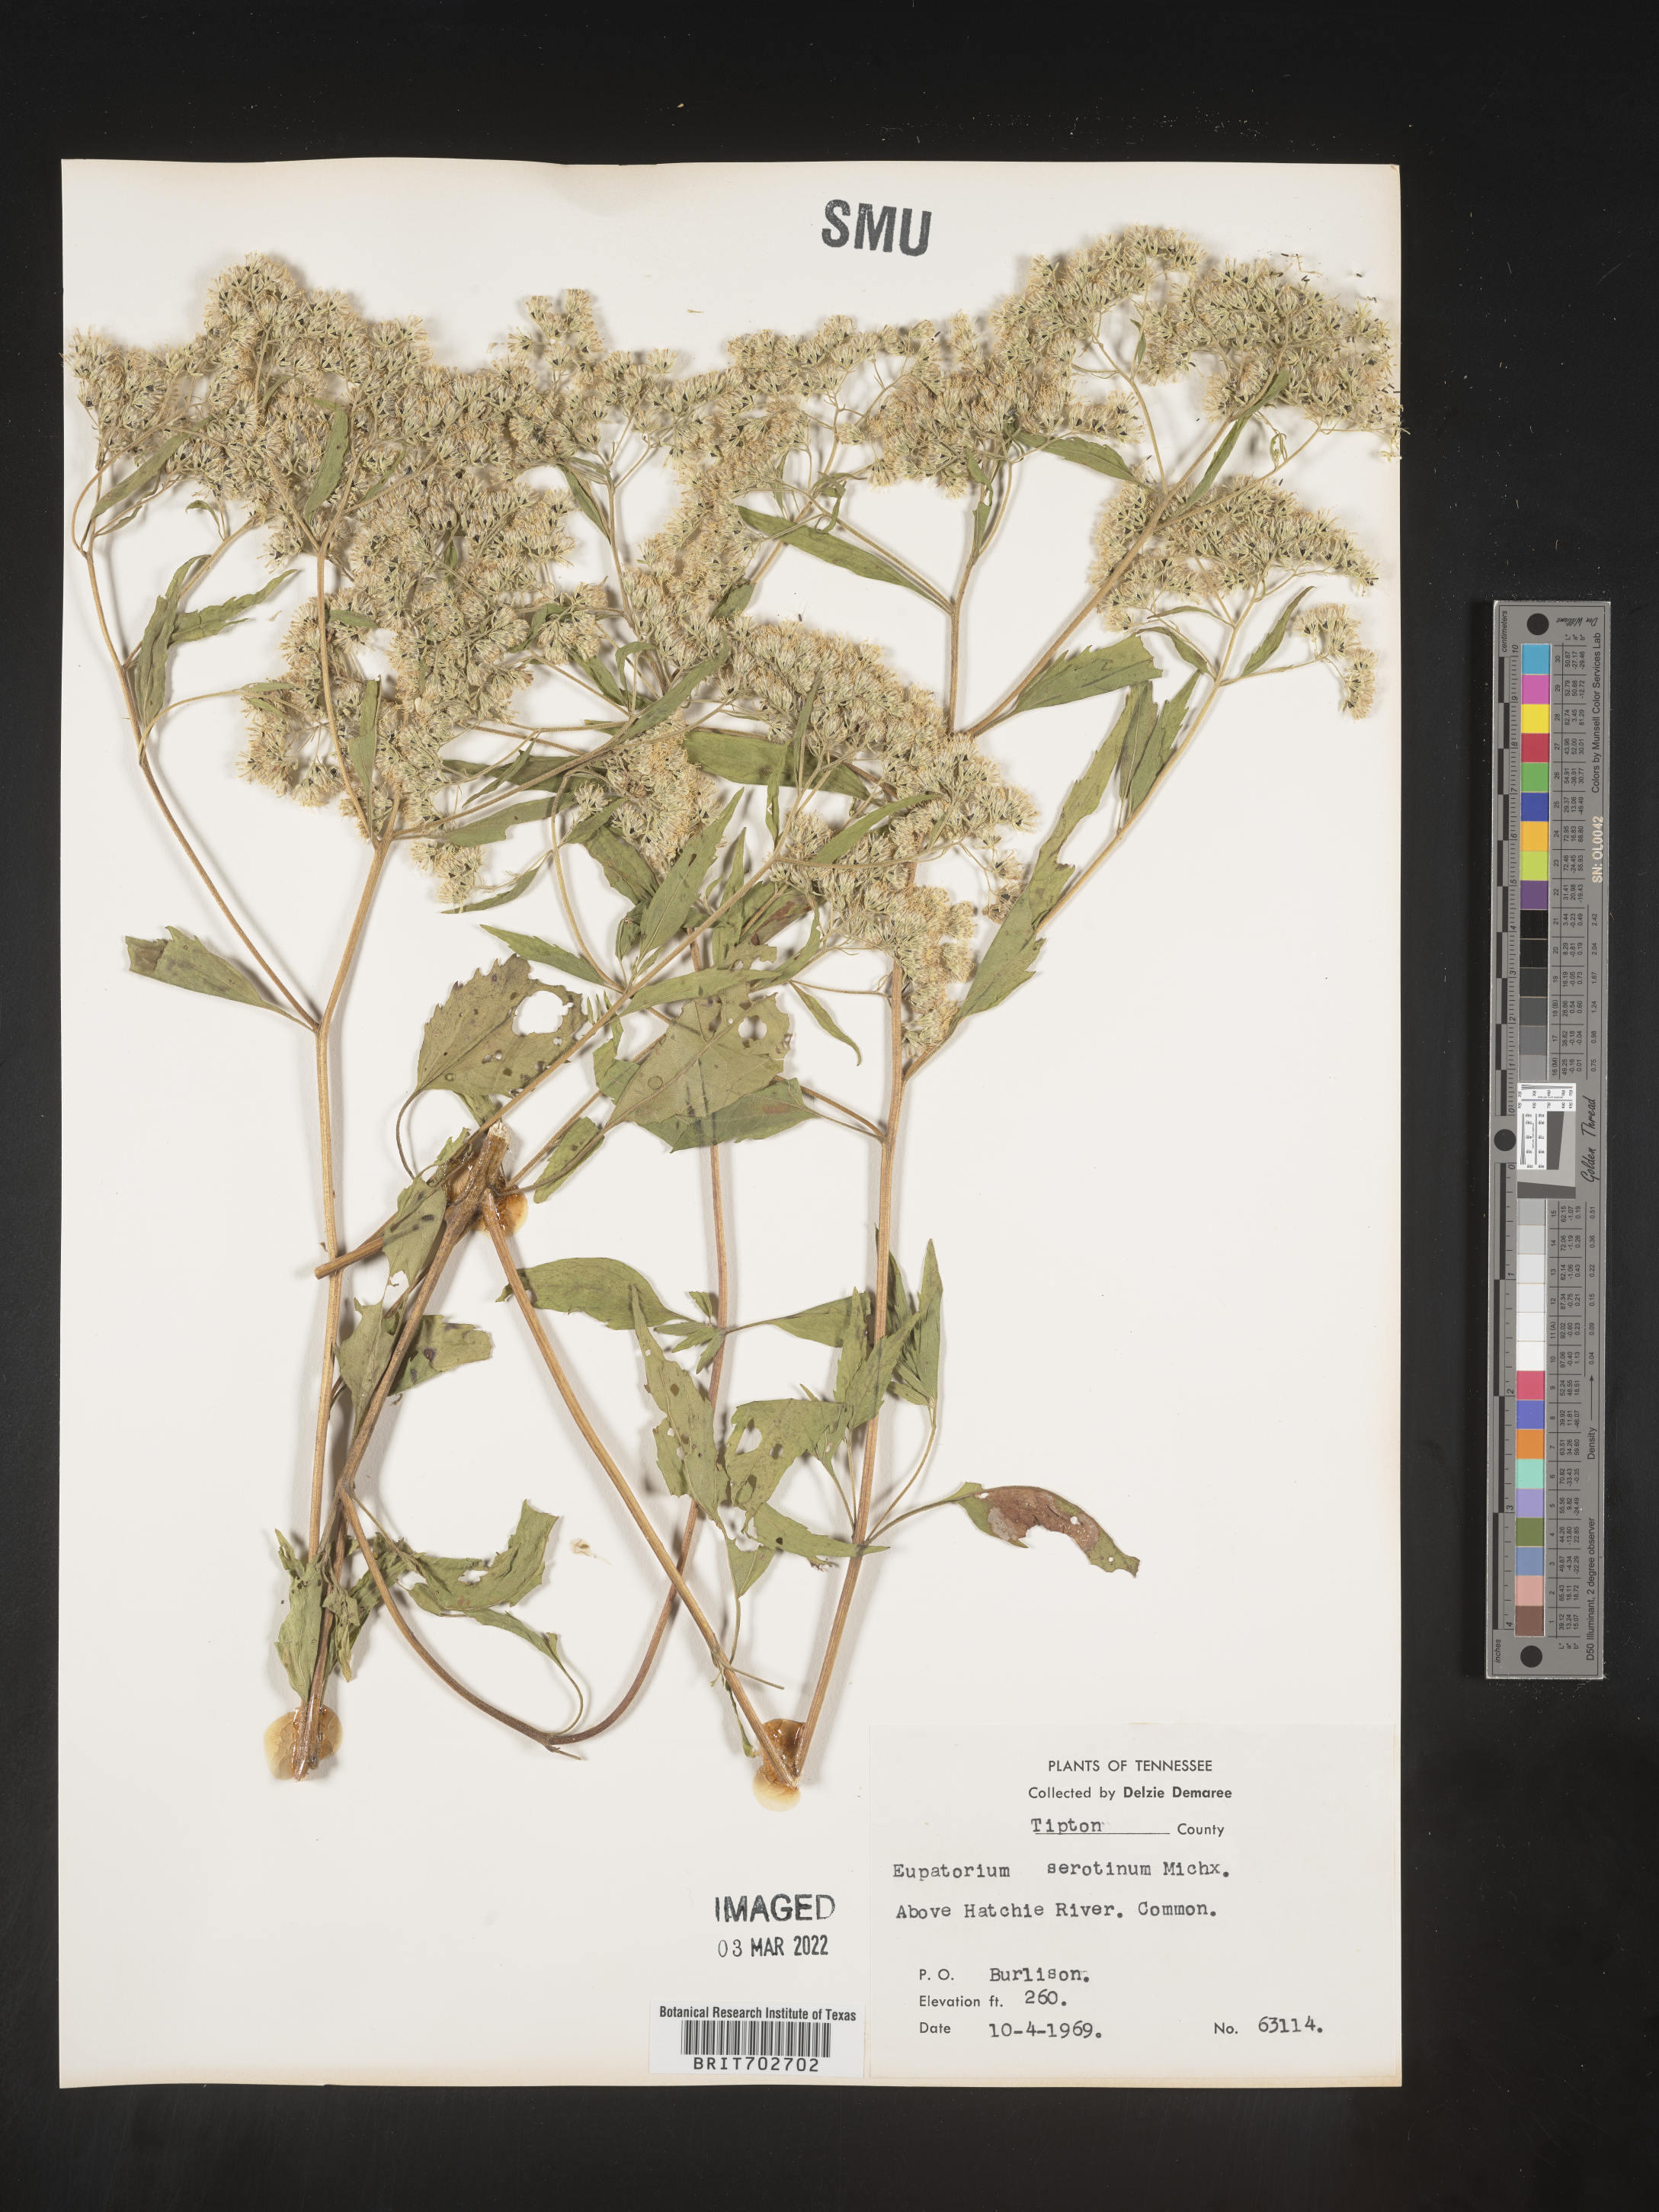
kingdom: Plantae
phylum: Tracheophyta
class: Magnoliopsida
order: Asterales
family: Asteraceae
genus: Eupatorium
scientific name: Eupatorium serotinum
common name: Late boneset
